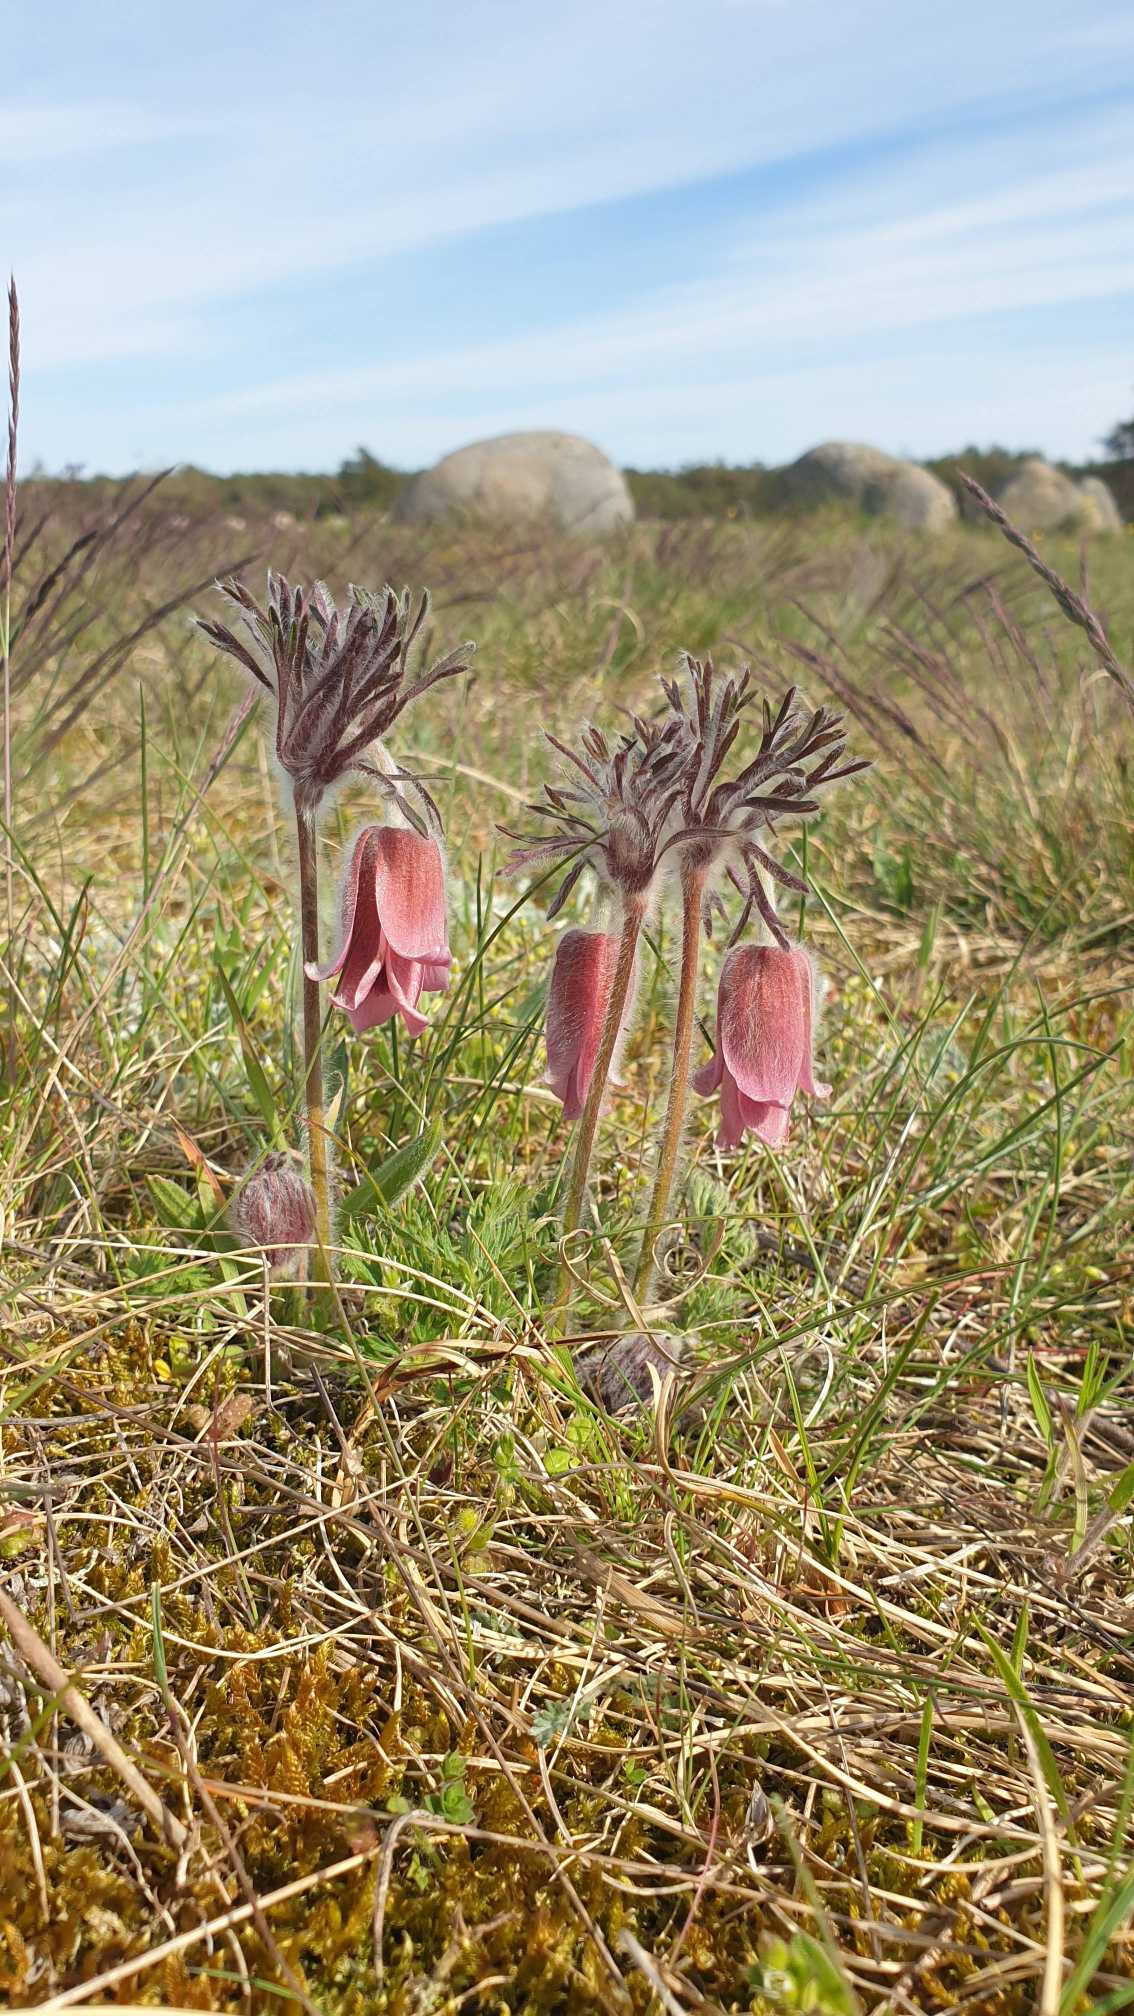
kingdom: Plantae
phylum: Tracheophyta
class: Magnoliopsida
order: Ranunculales
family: Ranunculaceae
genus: Pulsatilla
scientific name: Pulsatilla pratensis
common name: Nikkende kobjælde
